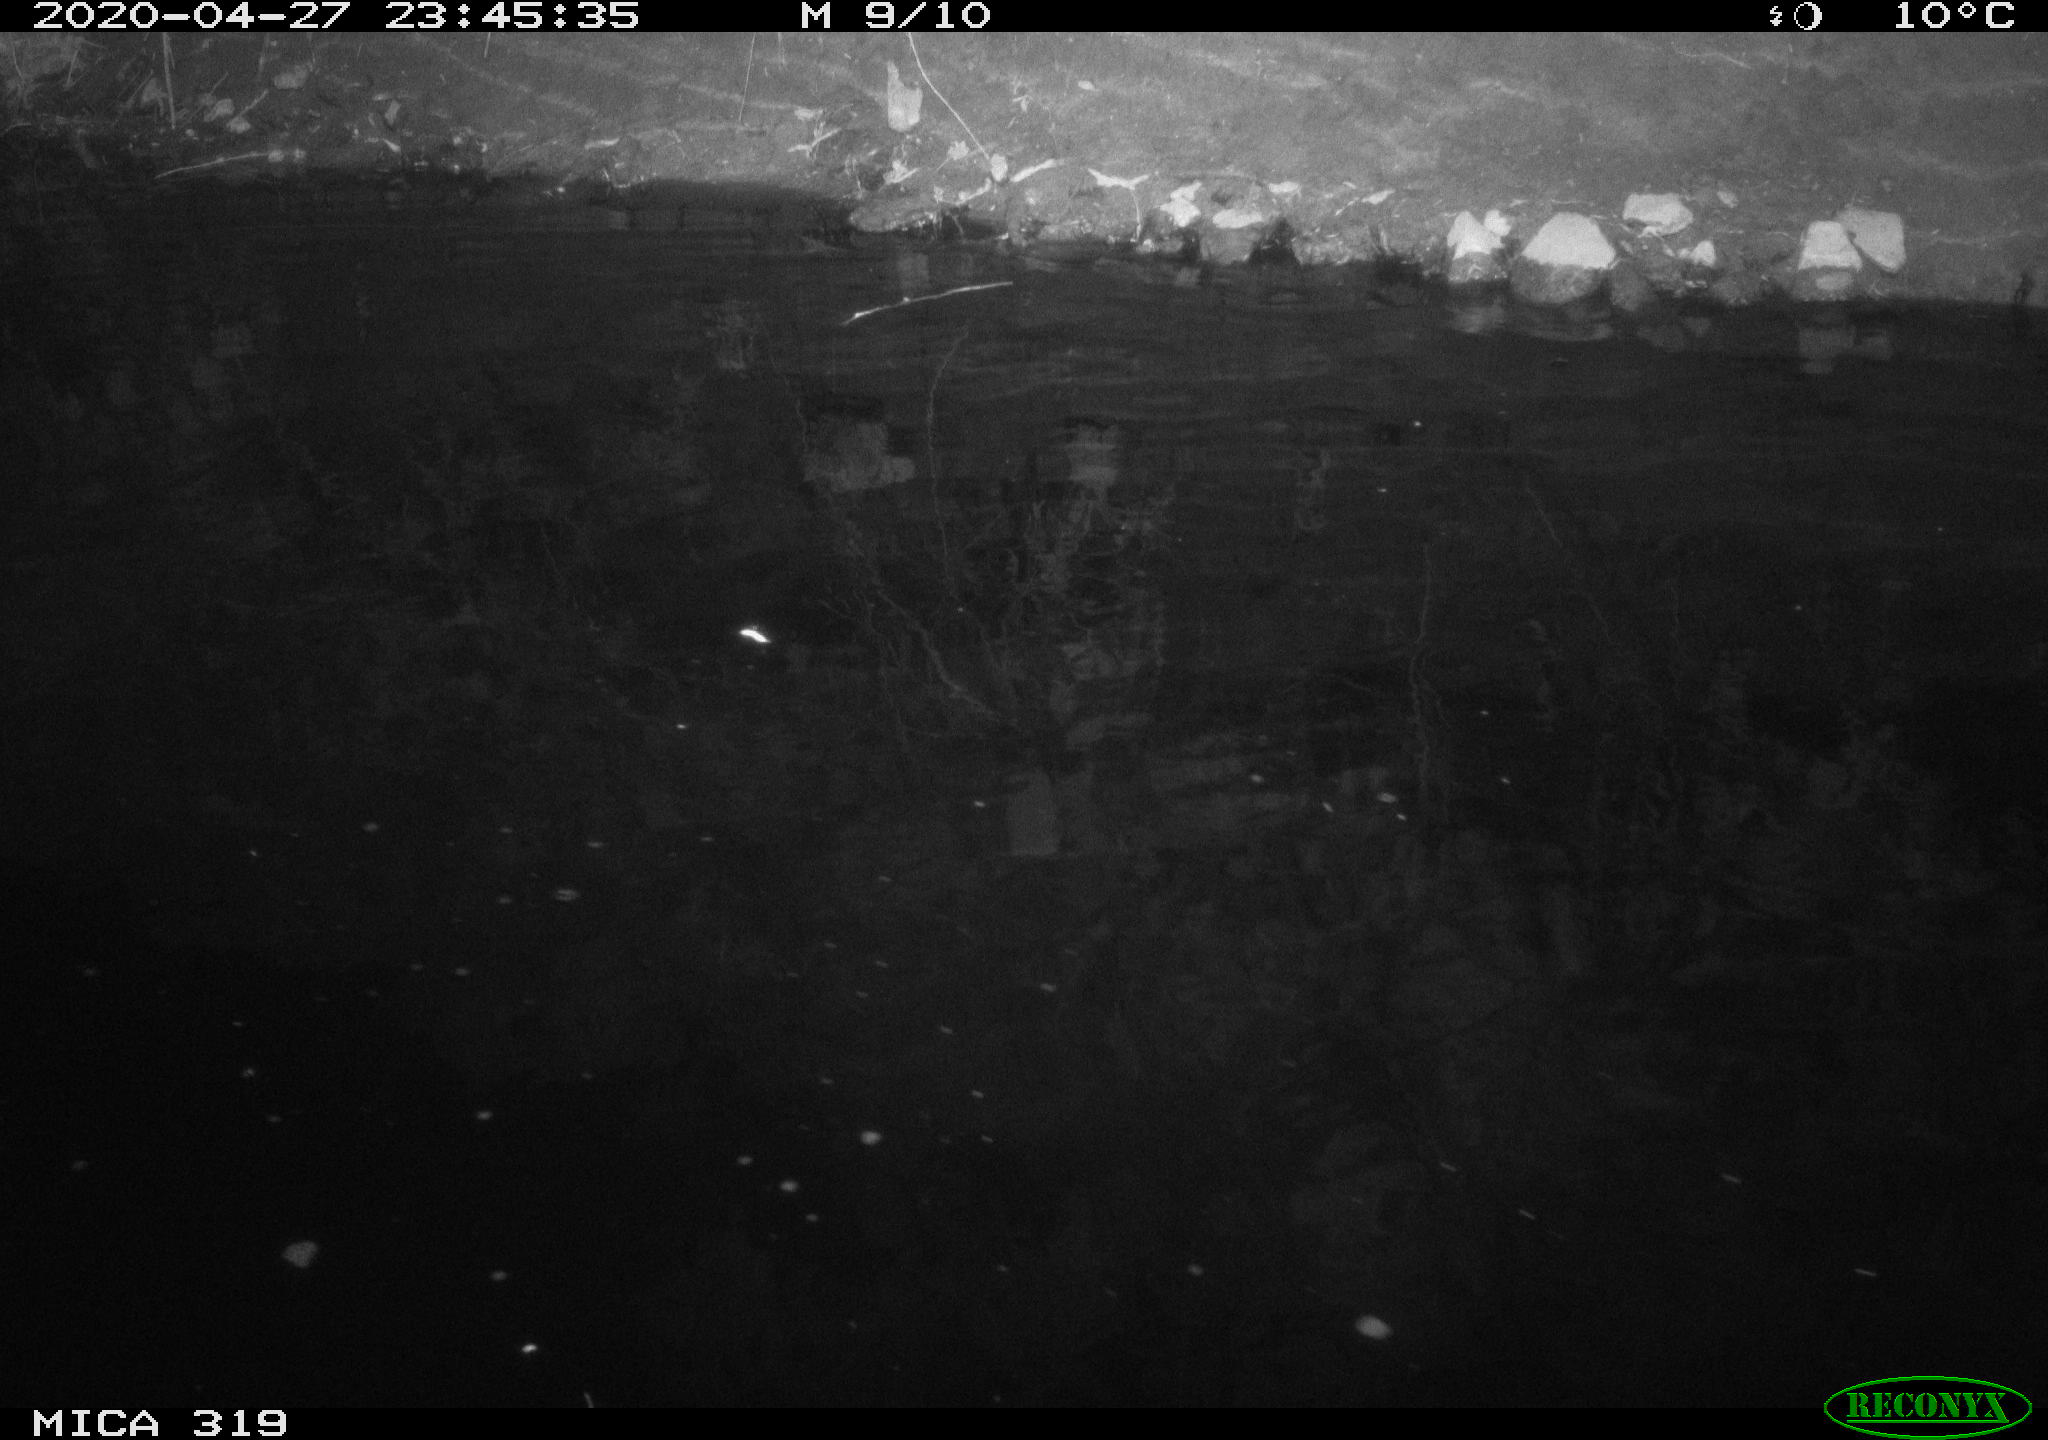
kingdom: Animalia
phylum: Chordata
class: Aves
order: Anseriformes
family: Anatidae
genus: Anas
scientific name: Anas platyrhynchos
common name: Mallard
